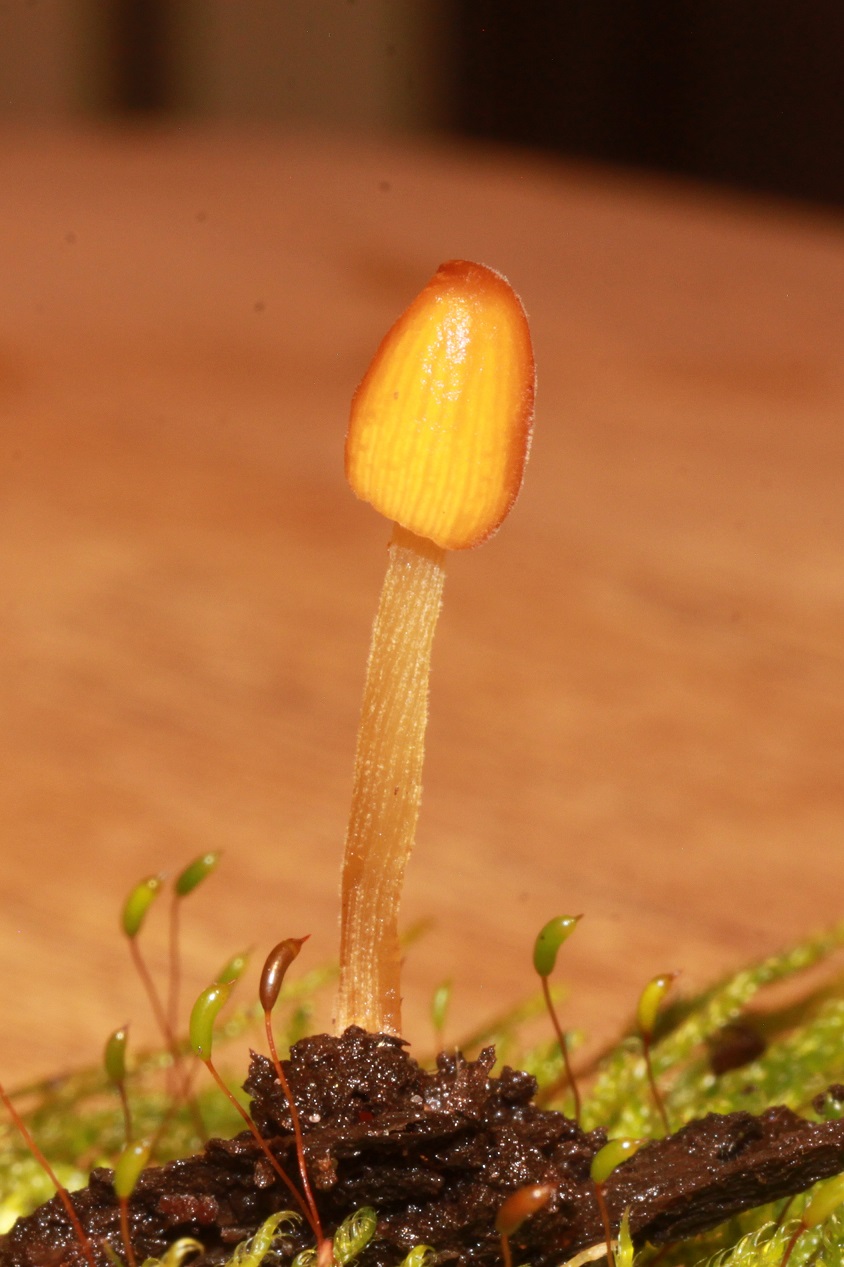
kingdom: Fungi
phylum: Basidiomycota
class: Agaricomycetes
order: Agaricales
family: Bolbitiaceae
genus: Conocybe
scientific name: Conocybe subpubescens
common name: krat-keglehat
